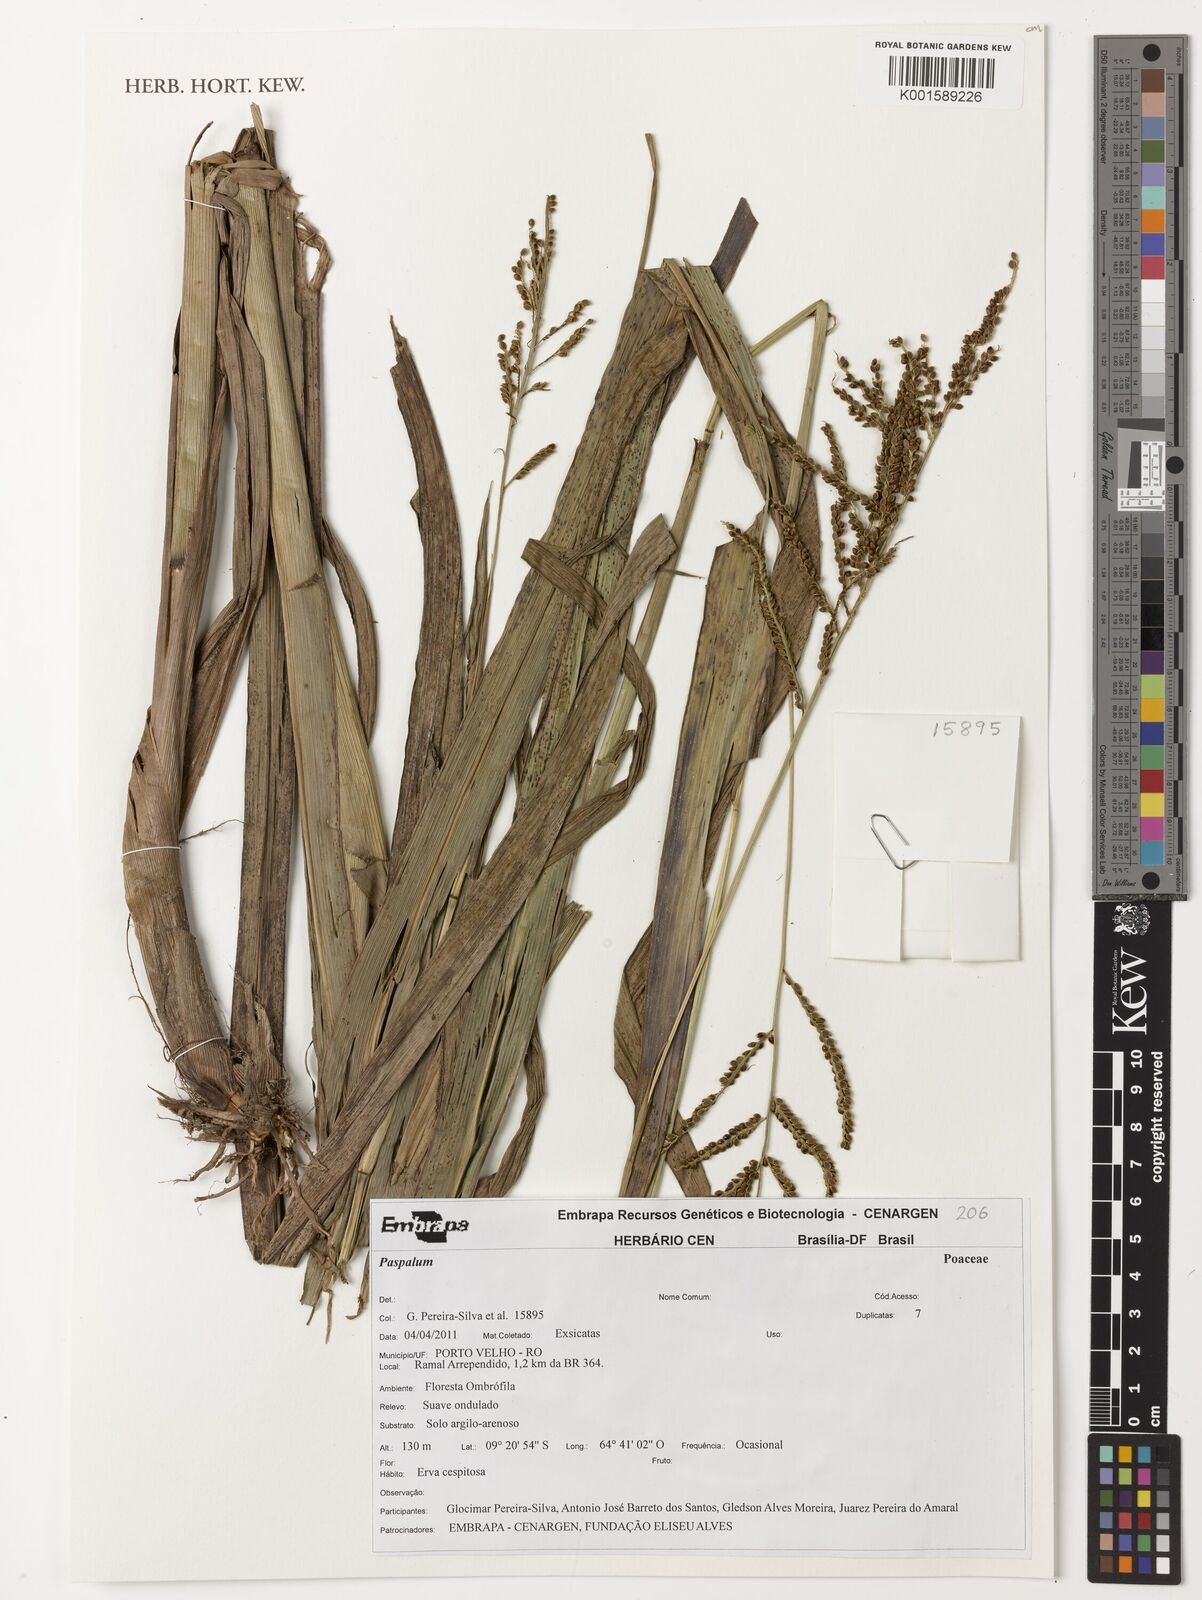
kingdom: Plantae
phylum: Tracheophyta
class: Liliopsida
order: Poales
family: Poaceae
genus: Paspalum
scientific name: Paspalum
